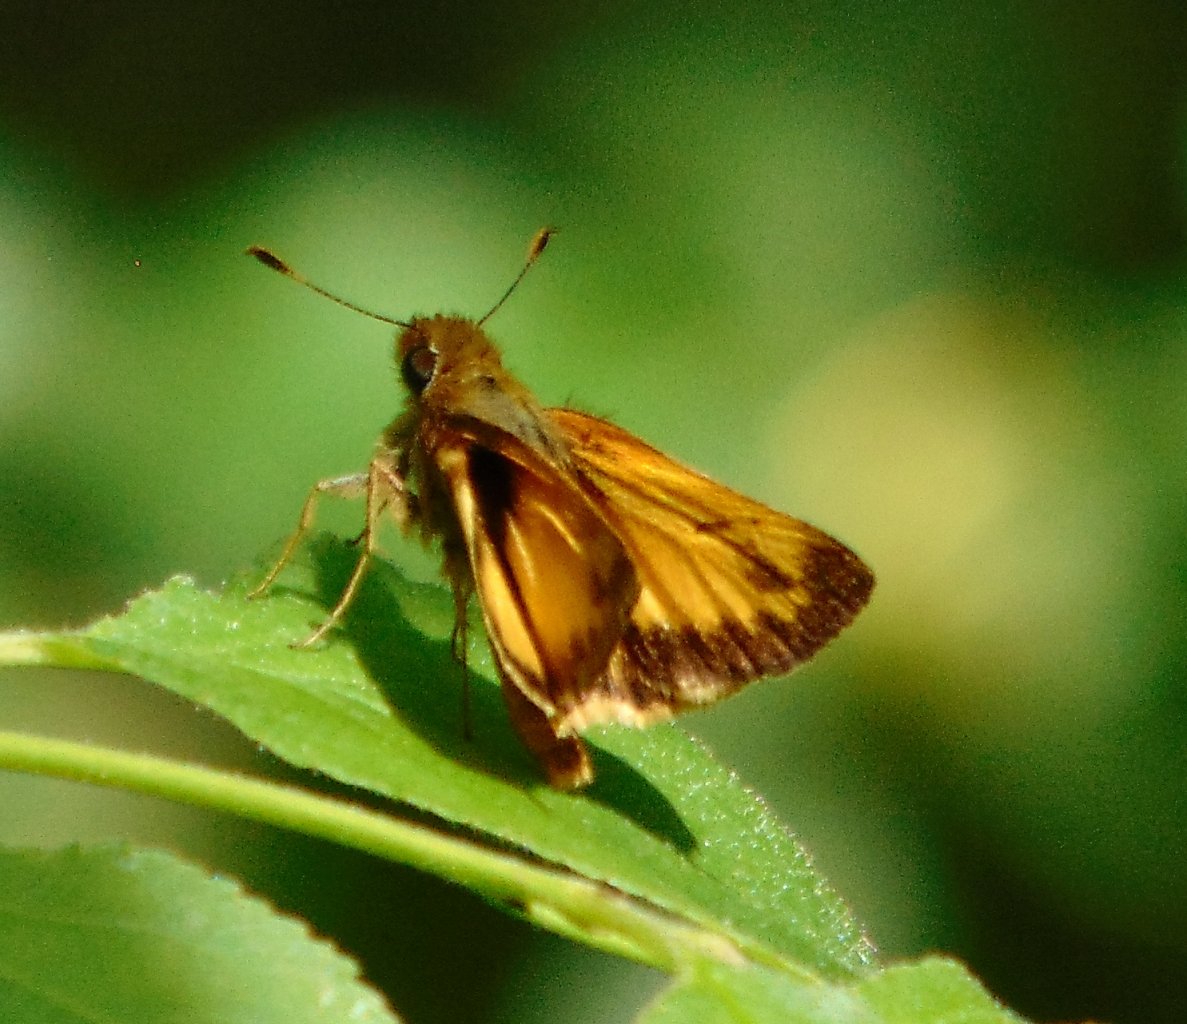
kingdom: Animalia
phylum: Arthropoda
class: Insecta
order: Lepidoptera
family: Hesperiidae
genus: Lon
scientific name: Lon zabulon
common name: Zabulon Skipper
